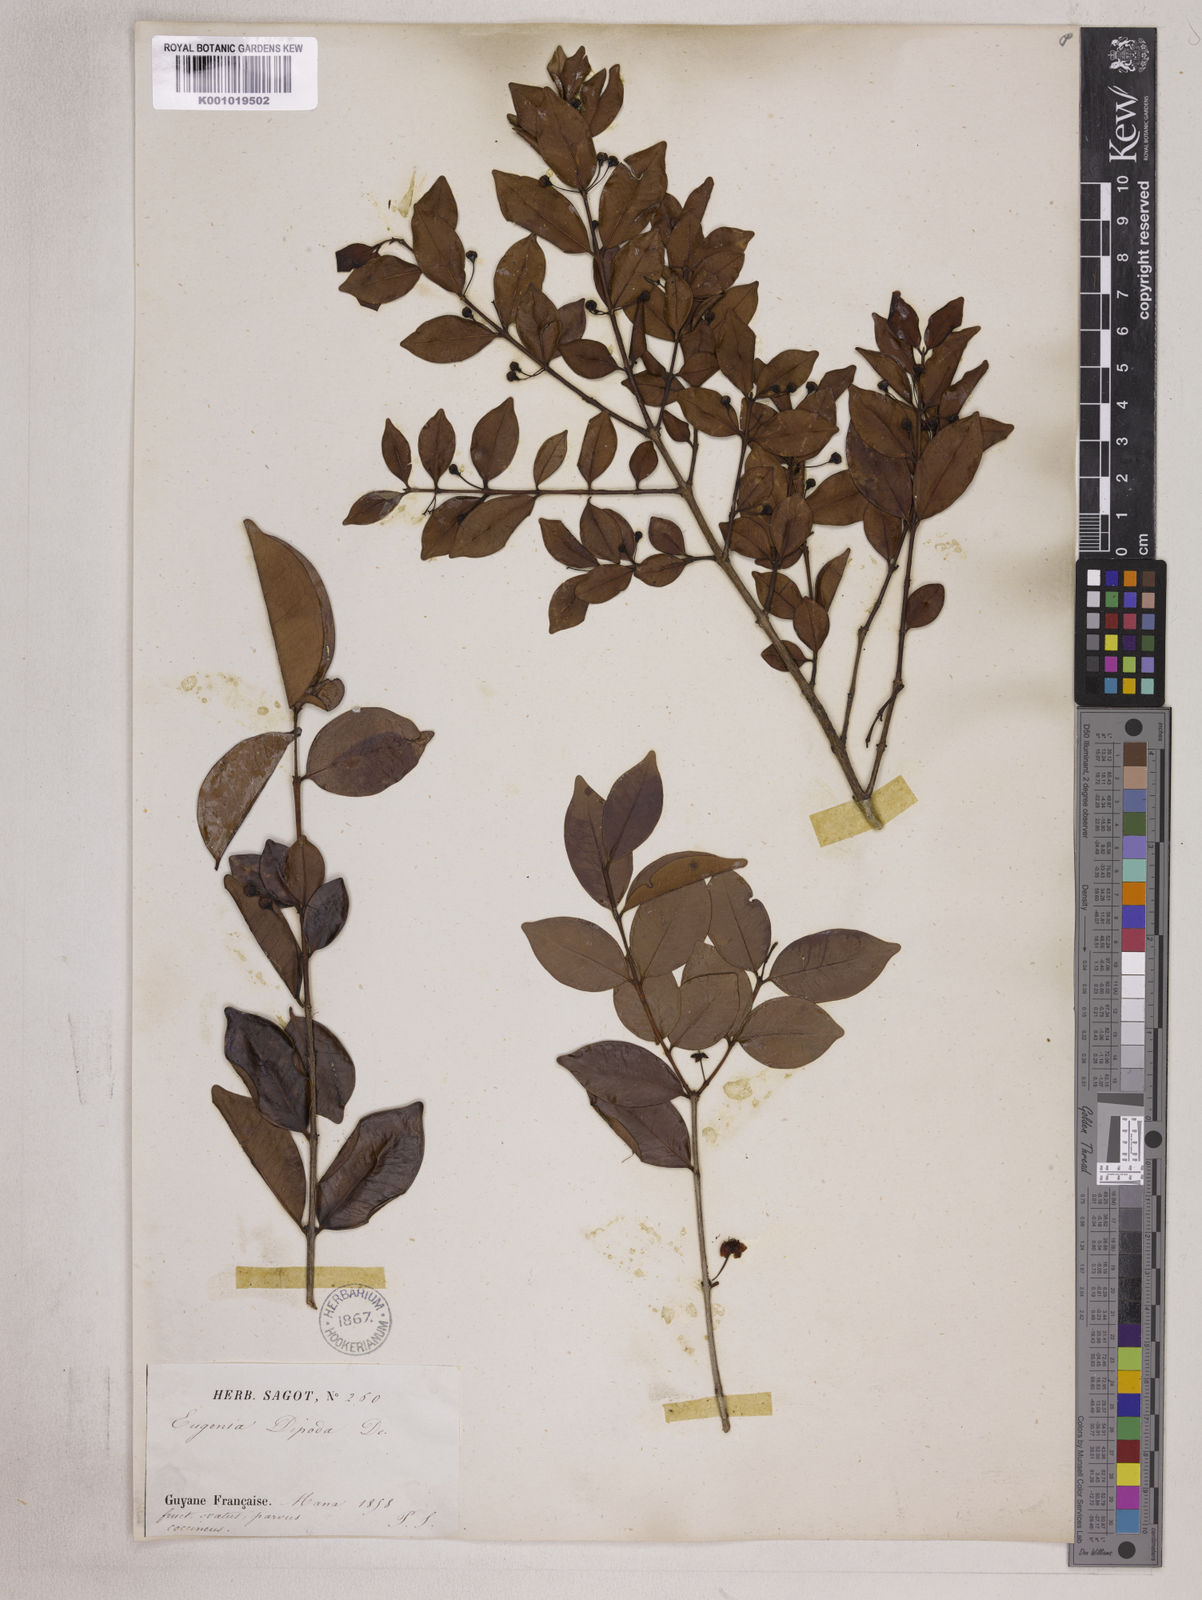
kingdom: Plantae
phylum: Tracheophyta
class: Magnoliopsida
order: Myrtales
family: Myrtaceae
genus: Eugenia
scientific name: Eugenia punicifolia
